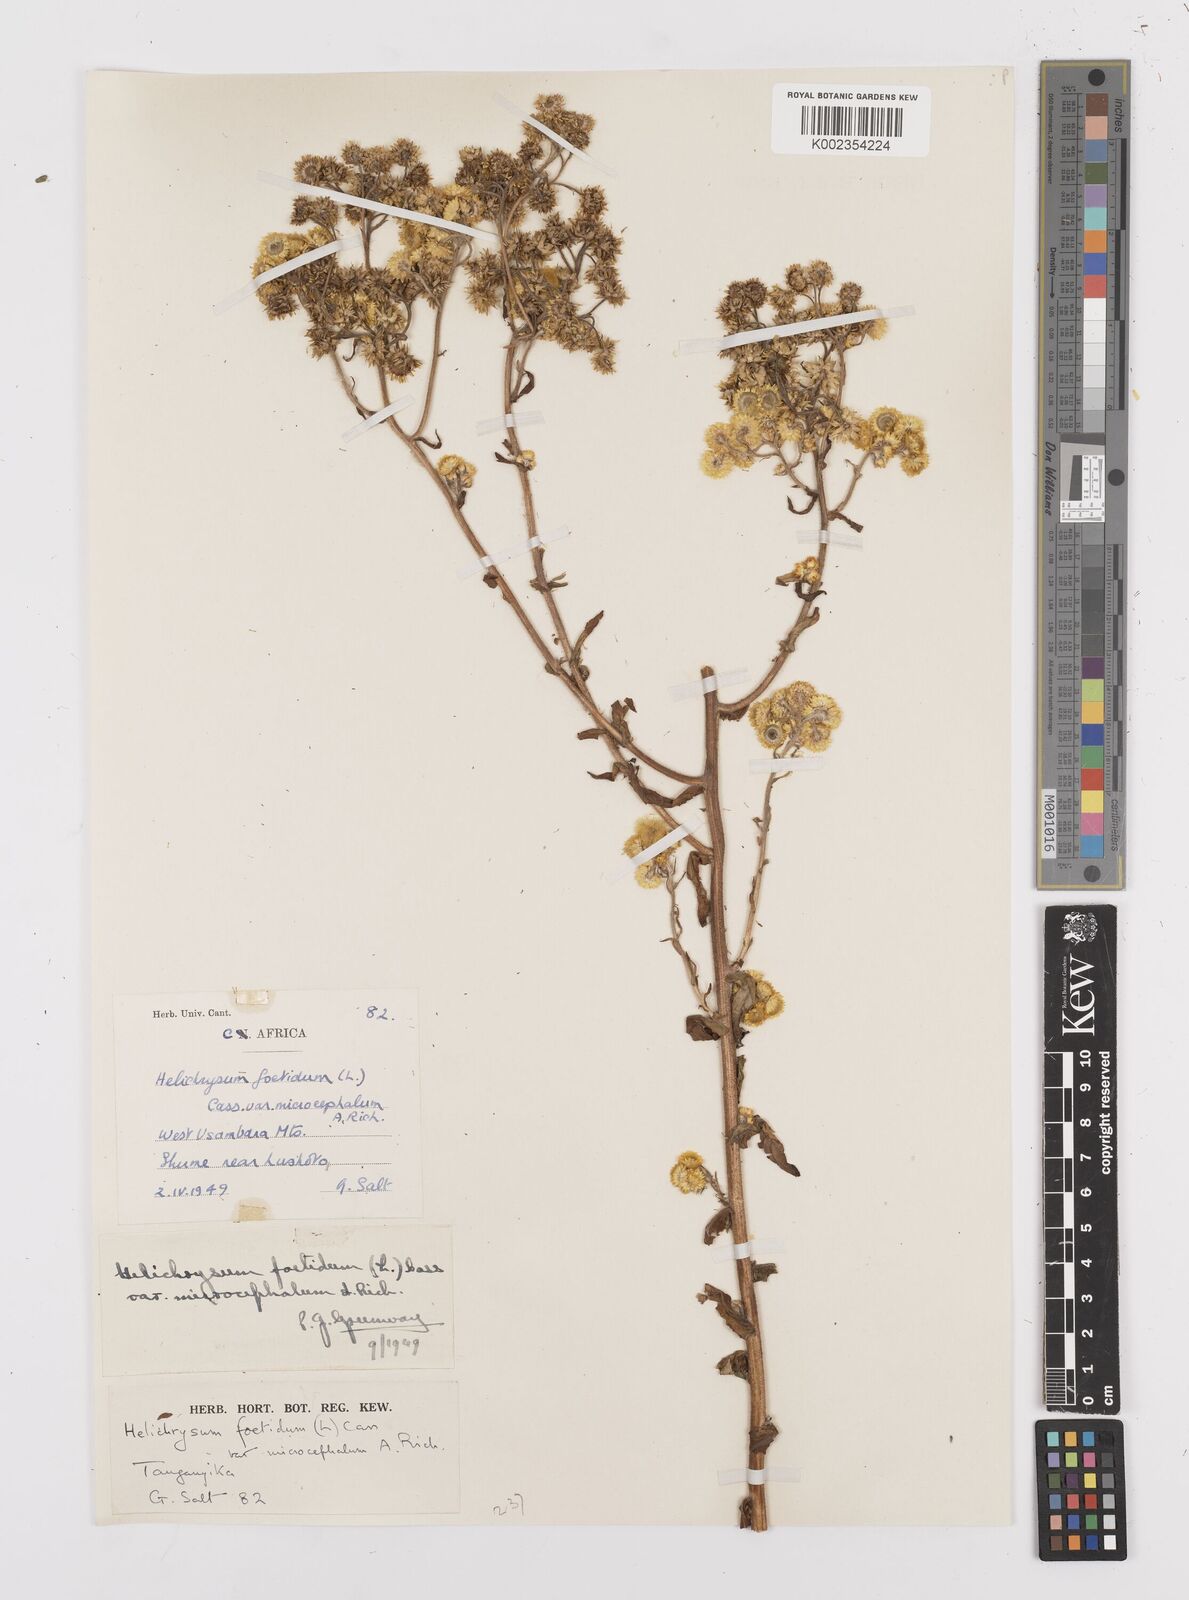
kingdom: Plantae
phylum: Tracheophyta
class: Magnoliopsida
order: Asterales
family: Asteraceae
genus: Helichrysum
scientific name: Helichrysum
